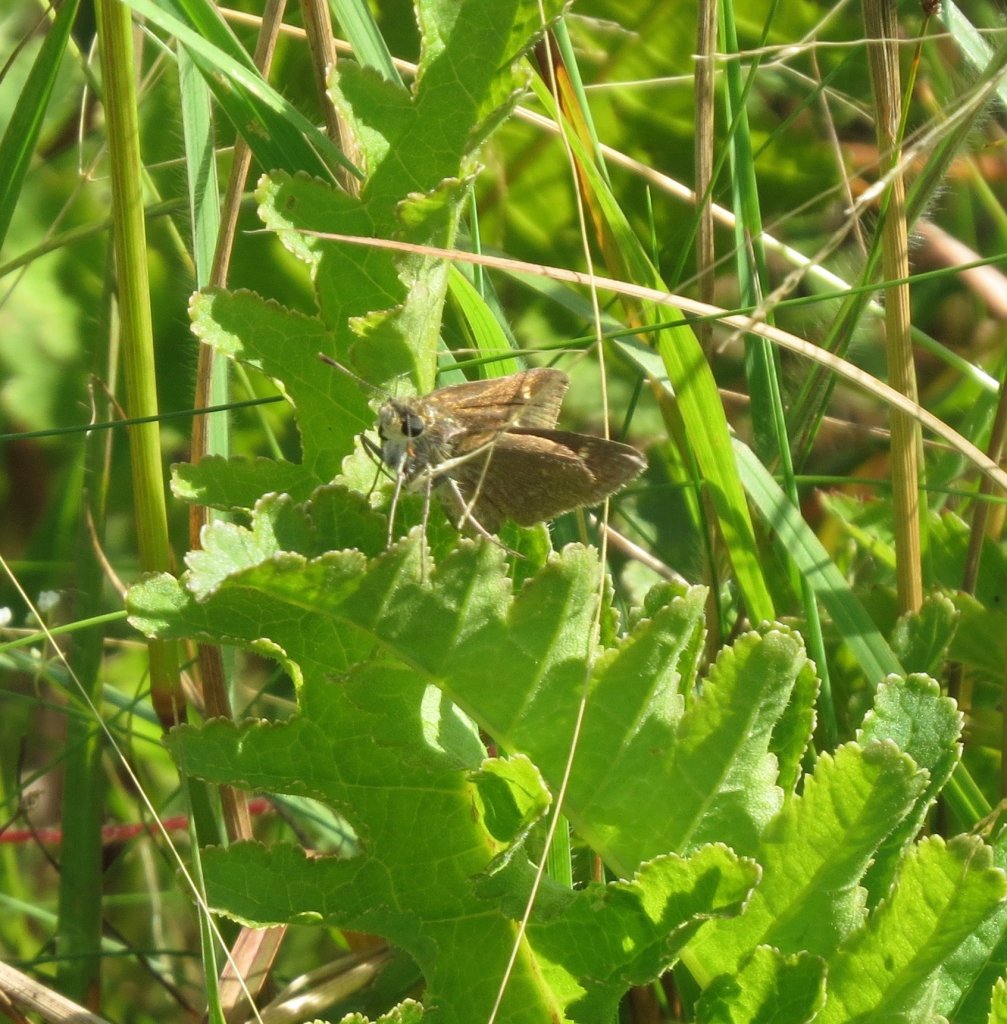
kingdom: Animalia
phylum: Arthropoda
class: Insecta
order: Lepidoptera
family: Hesperiidae
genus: Vernia
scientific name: Vernia verna
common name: Little Glassywing
